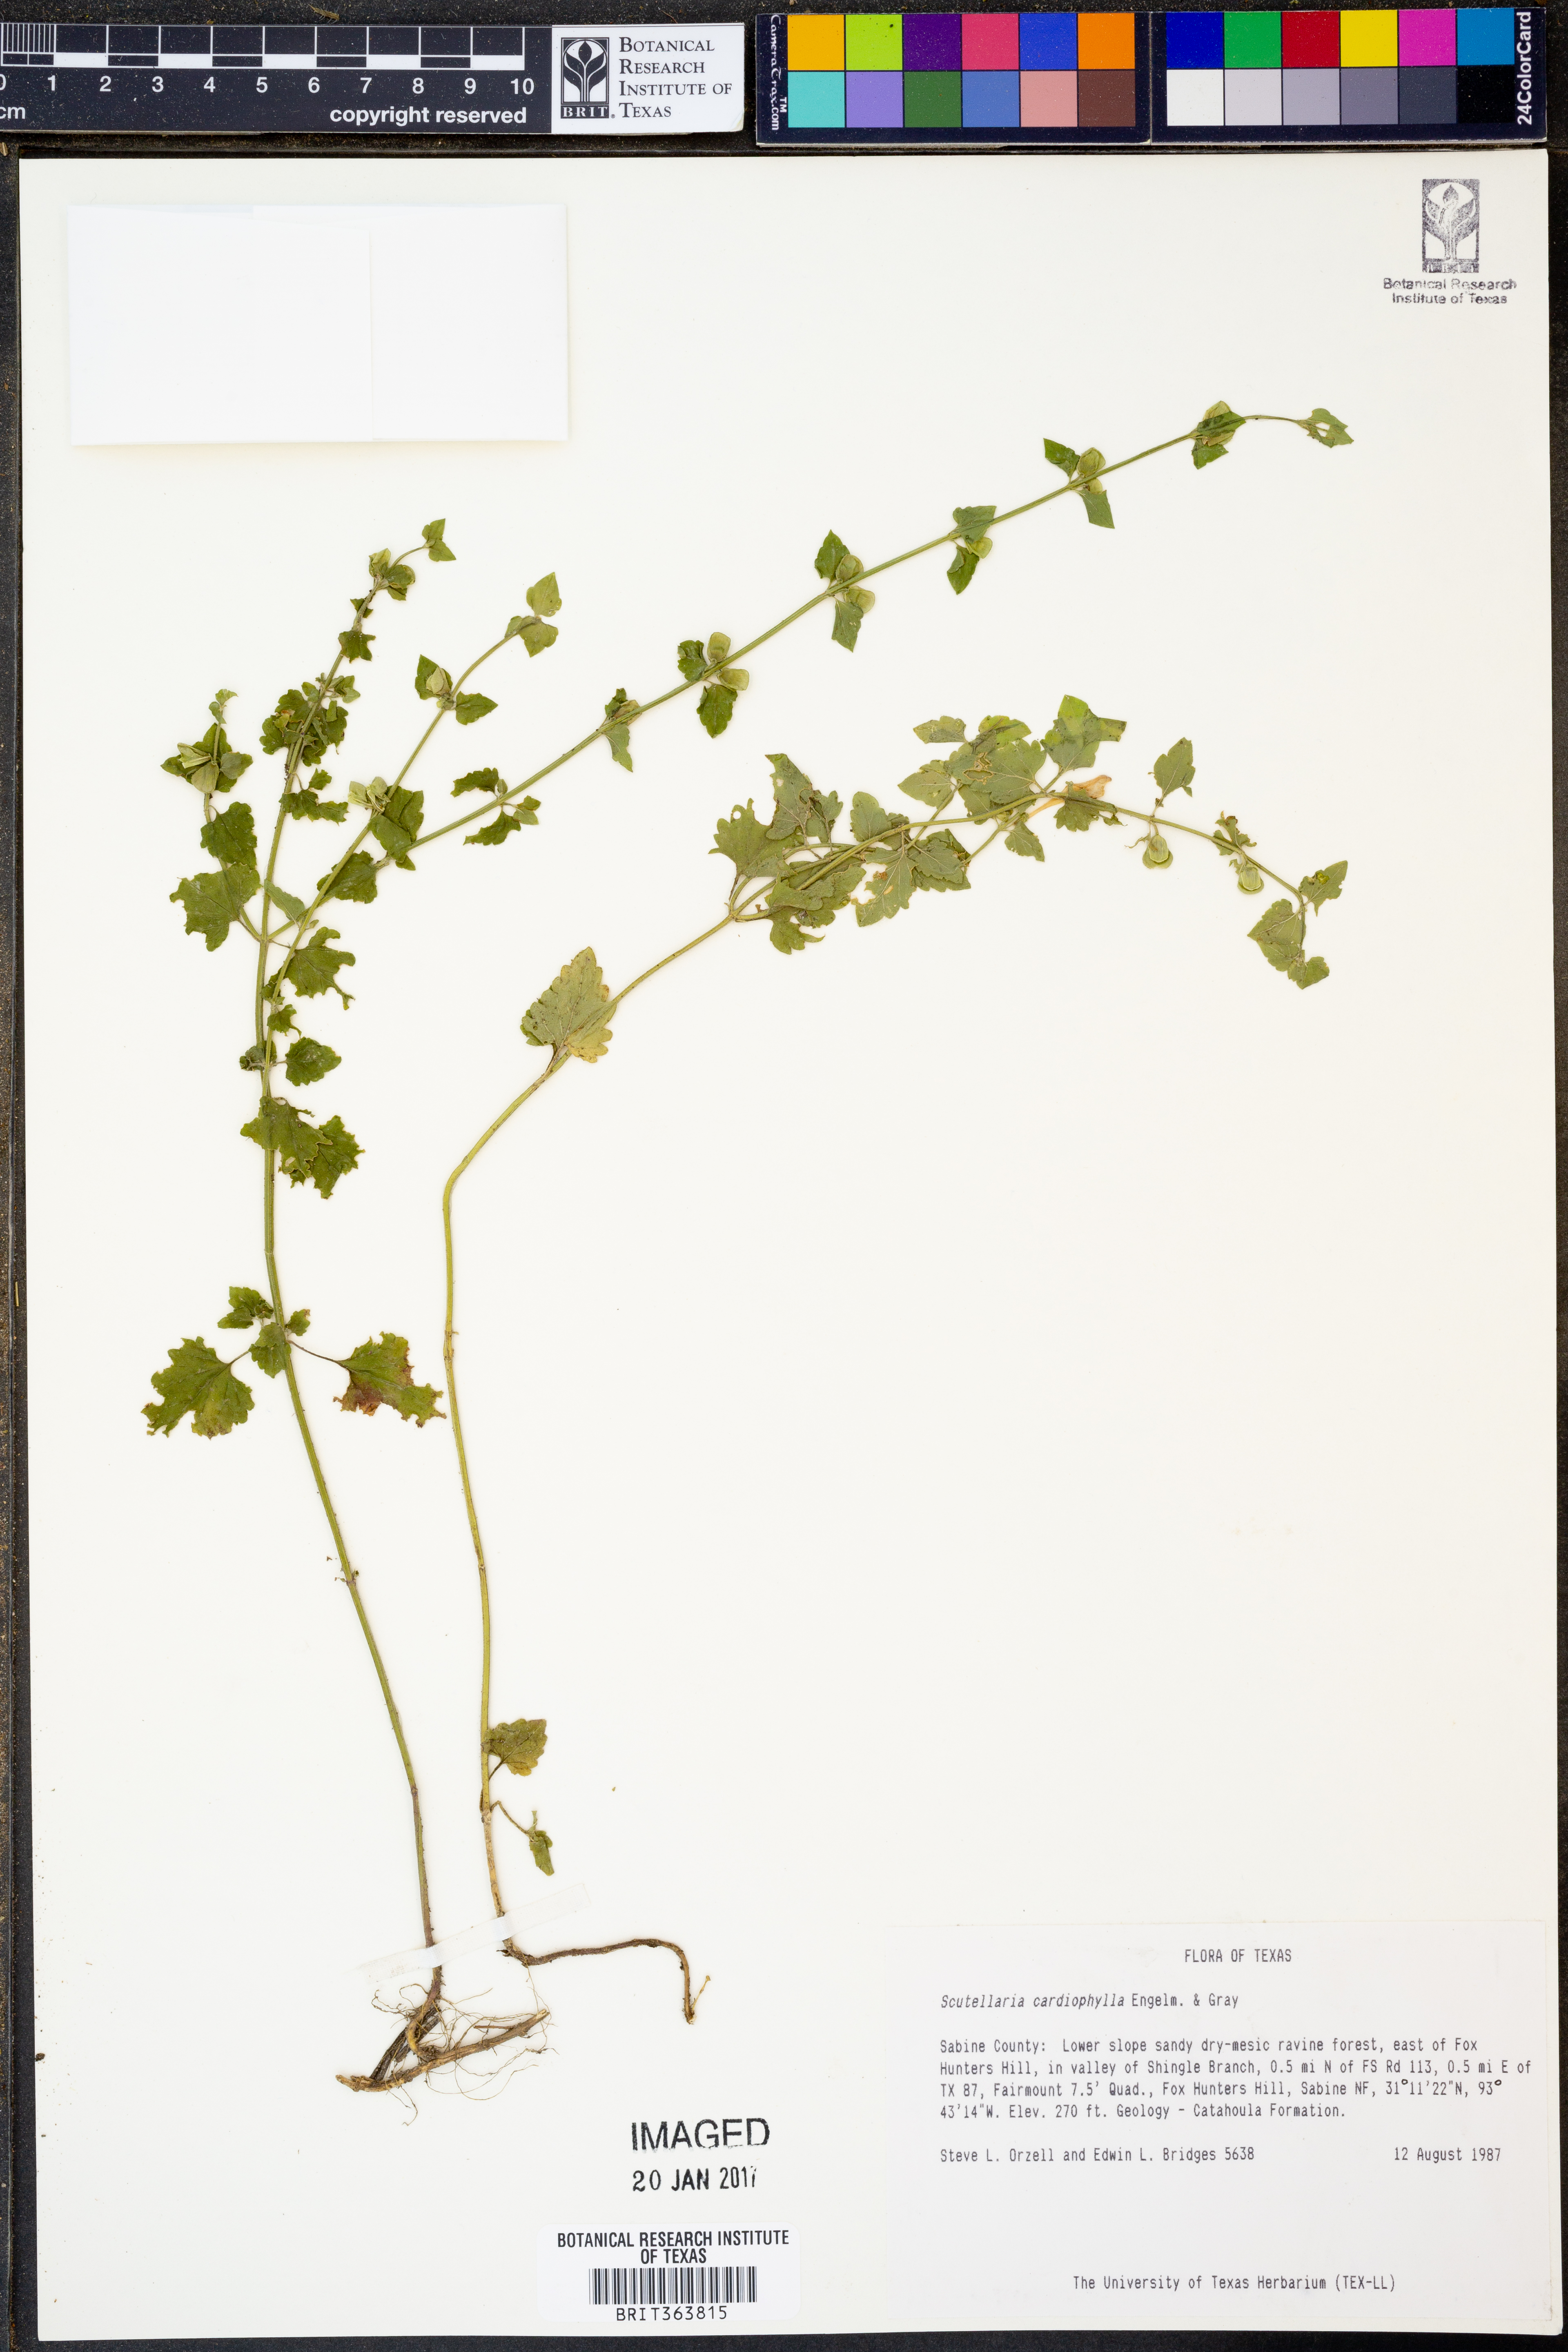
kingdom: Plantae
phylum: Tracheophyta
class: Magnoliopsida
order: Lamiales
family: Lamiaceae
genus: Scutellaria
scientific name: Scutellaria cardiophylla
